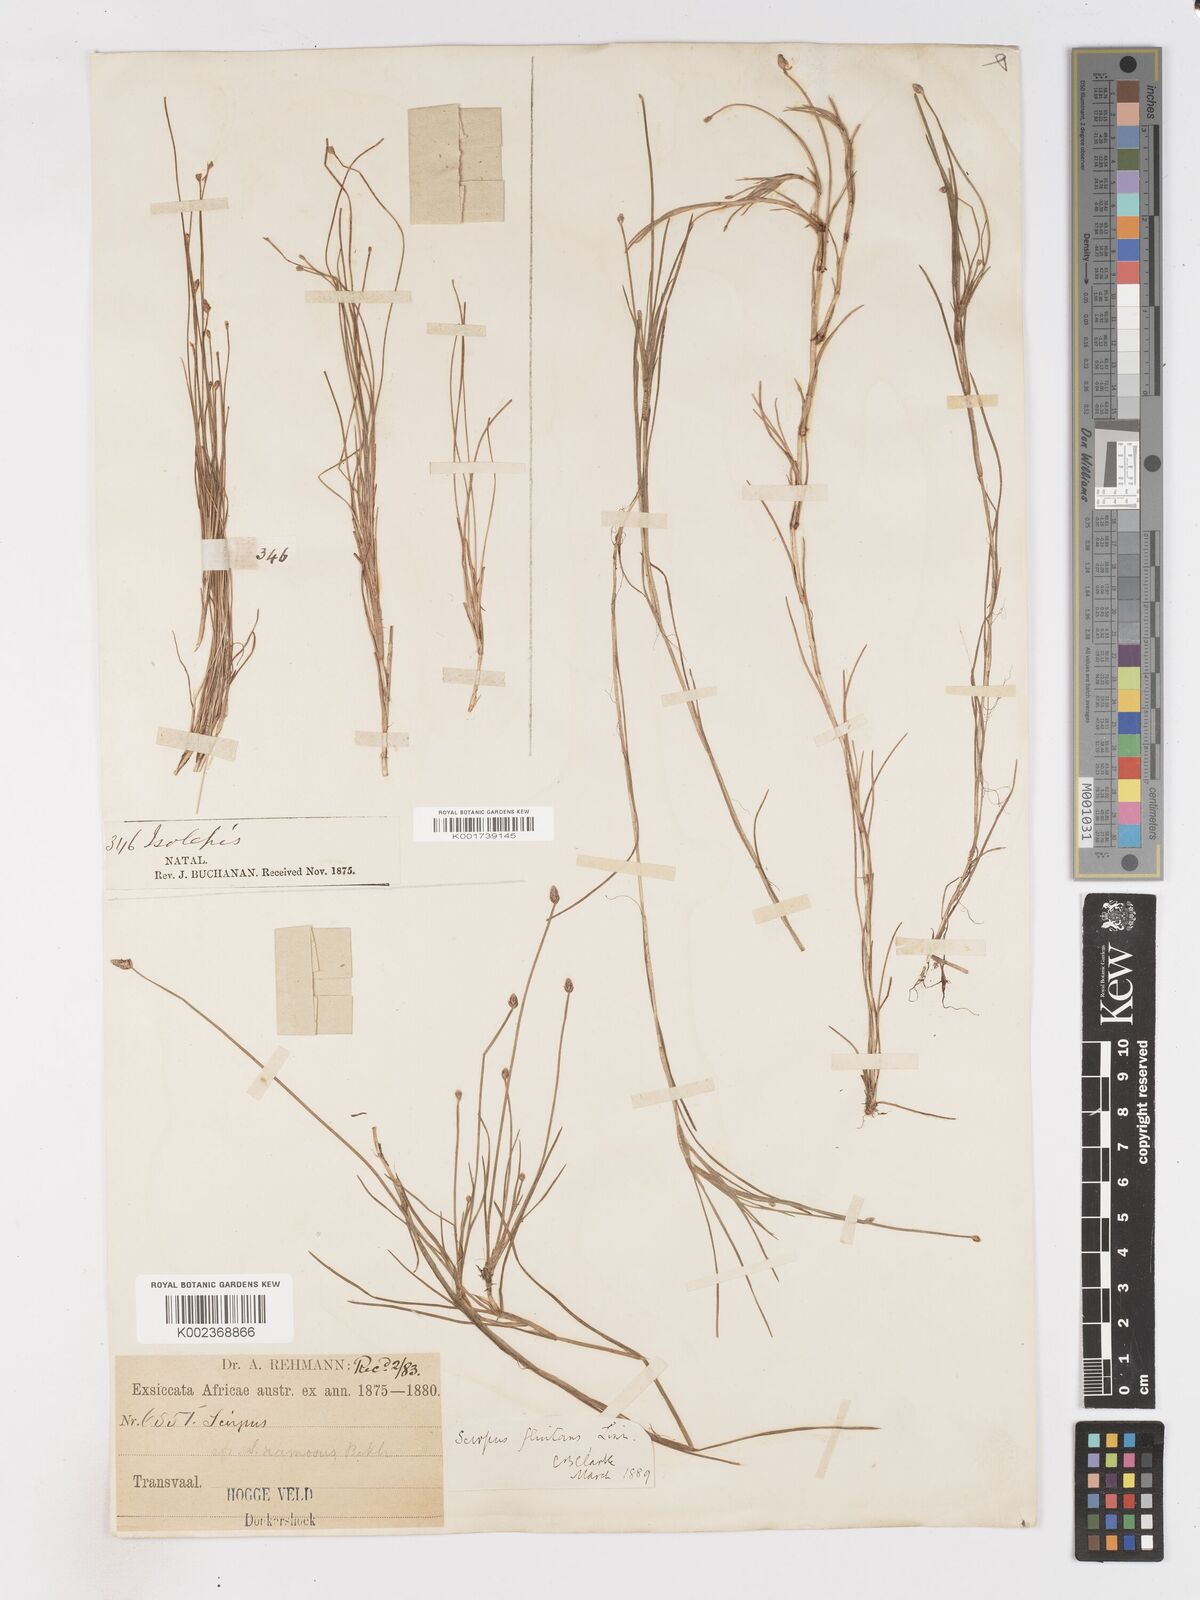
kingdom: Plantae
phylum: Tracheophyta
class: Liliopsida
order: Poales
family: Cyperaceae
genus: Isolepis
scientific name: Isolepis fluitans
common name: Floating club-rush
